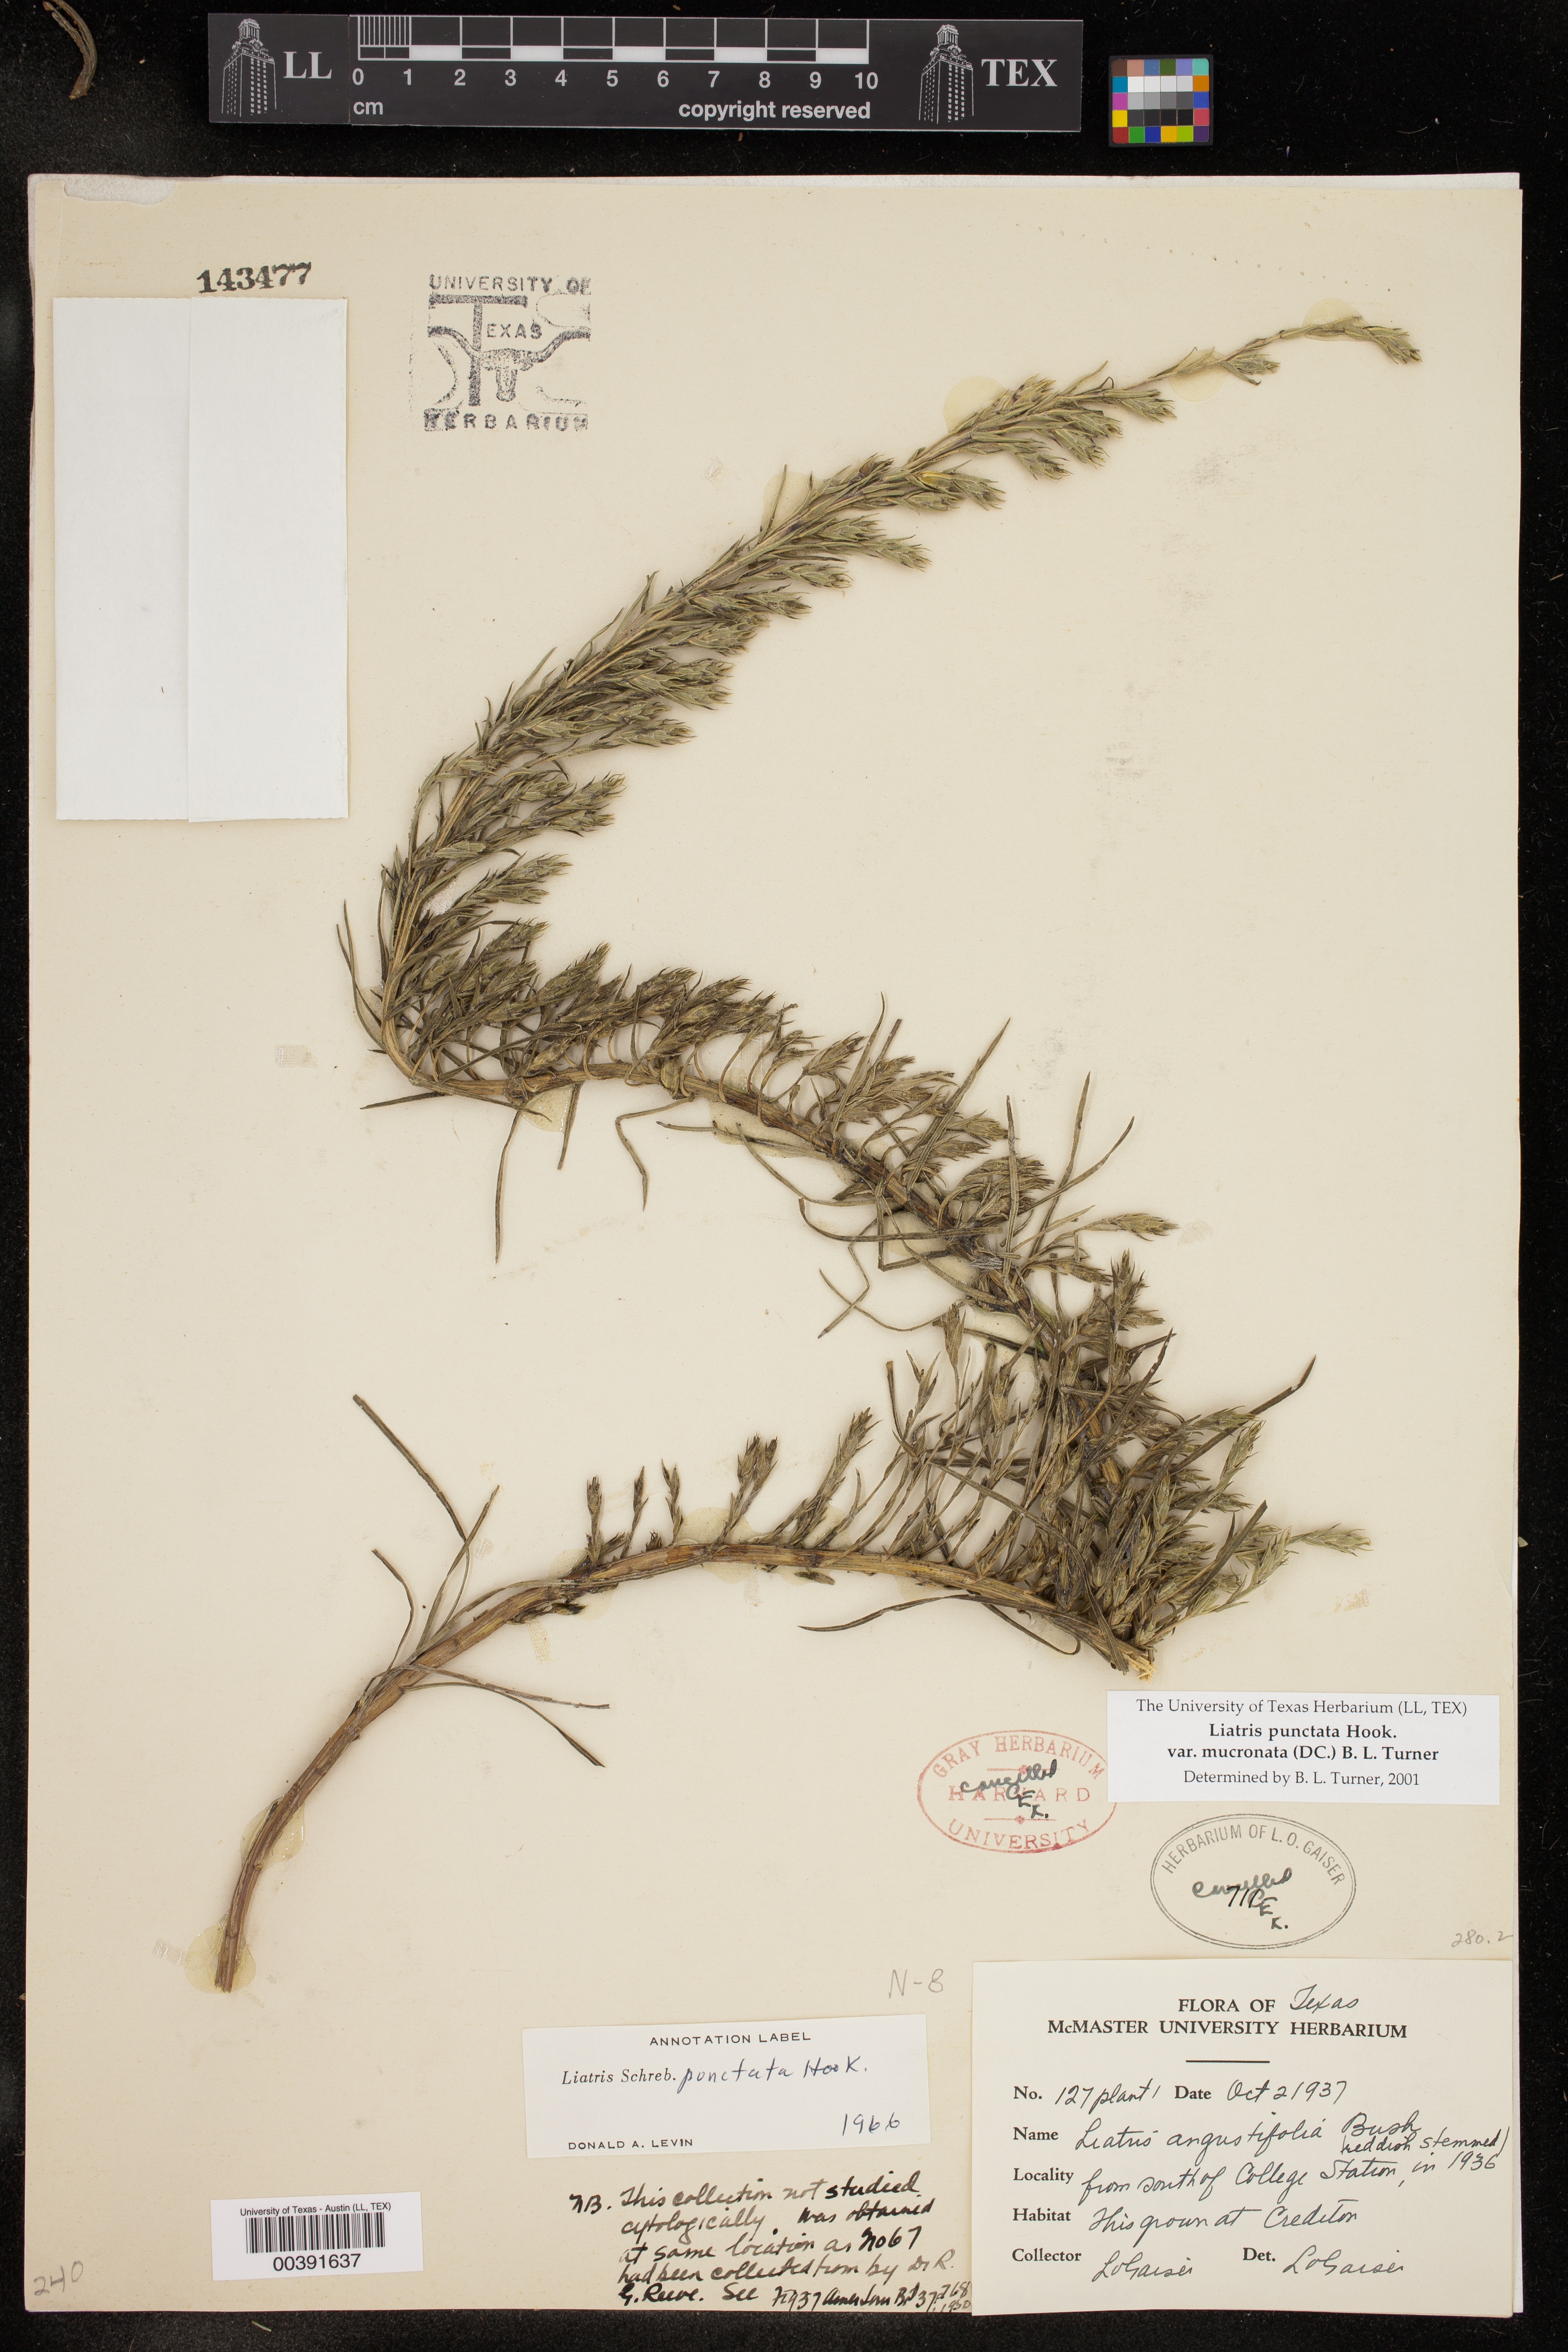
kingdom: Plantae
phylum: Tracheophyta
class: Magnoliopsida
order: Asterales
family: Asteraceae
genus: Liatris
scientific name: Liatris punctata
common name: Dotted gayfeather
